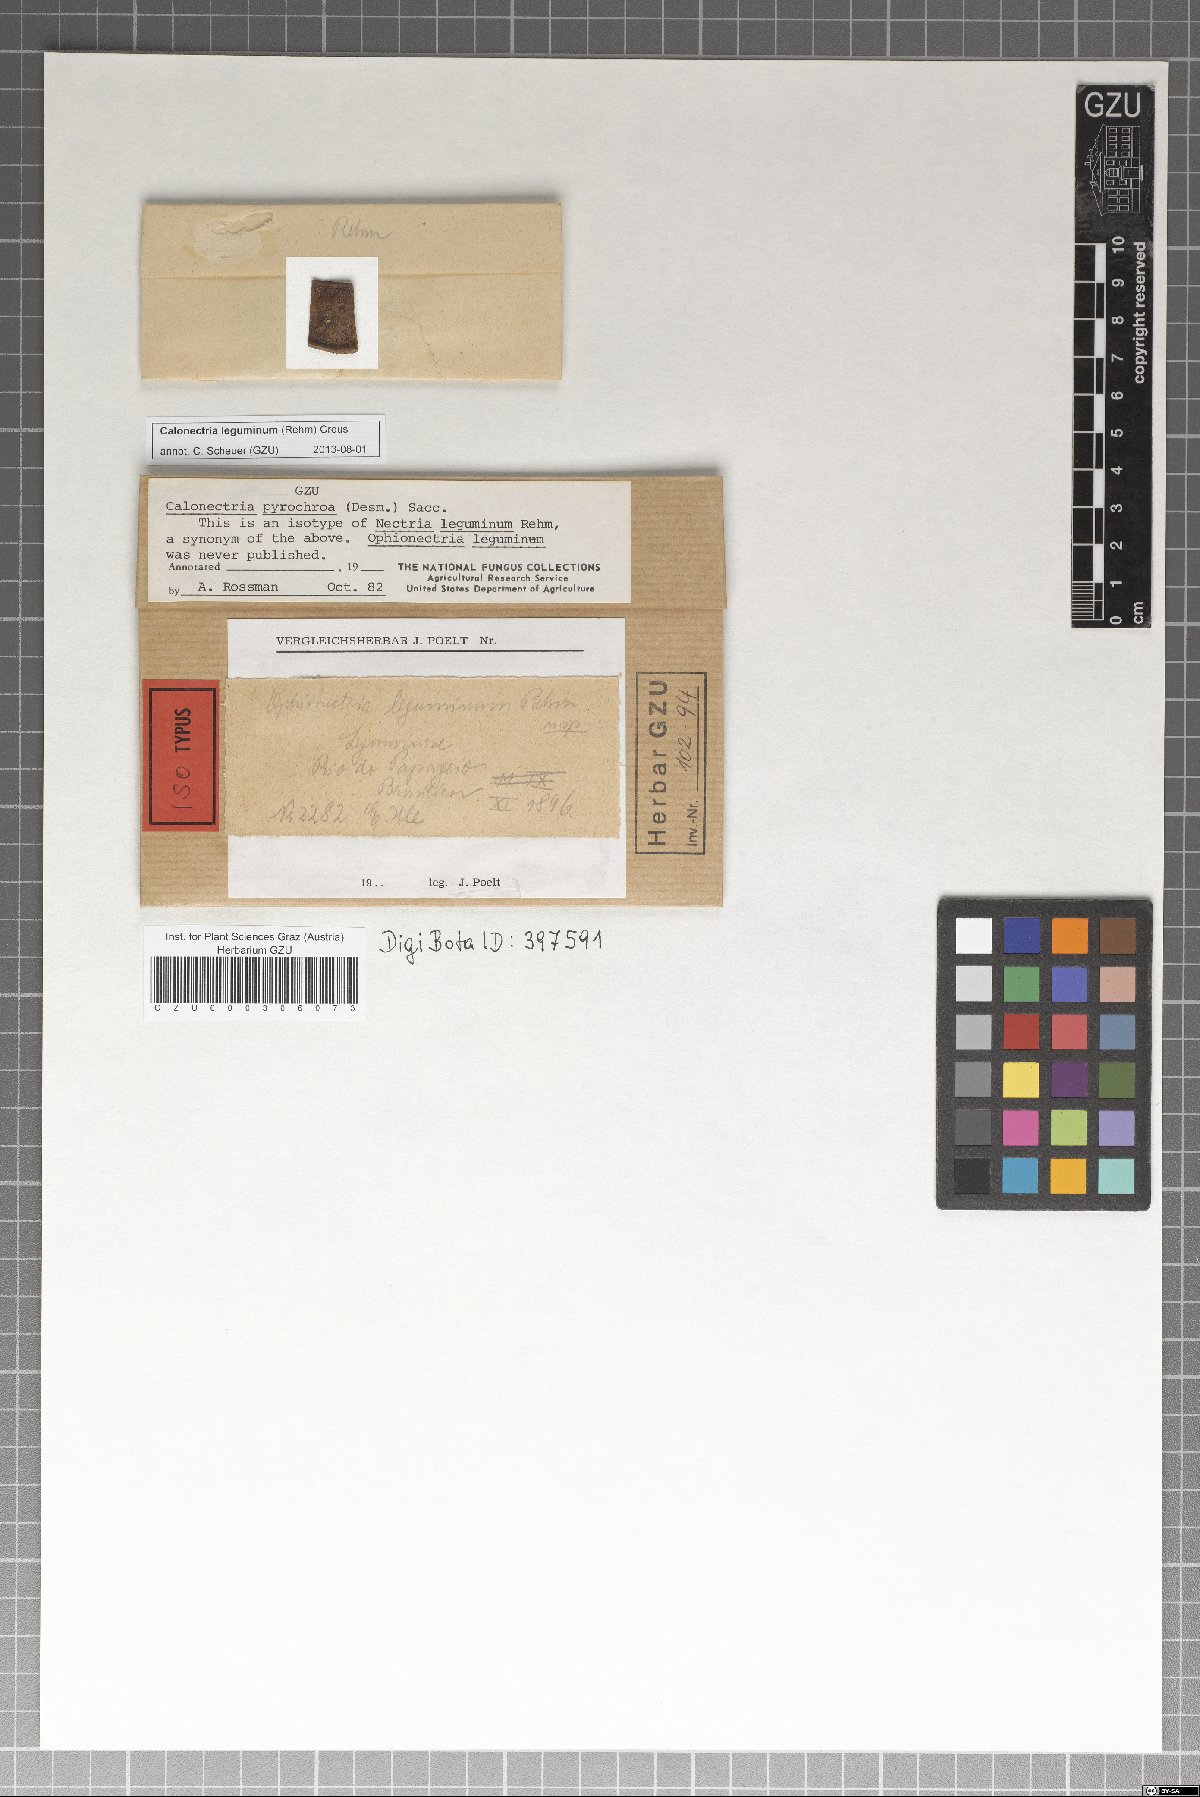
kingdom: Fungi
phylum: Ascomycota
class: Sordariomycetes
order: Hypocreales
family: Nectriaceae
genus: Calonectria
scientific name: Calonectria leguminum
